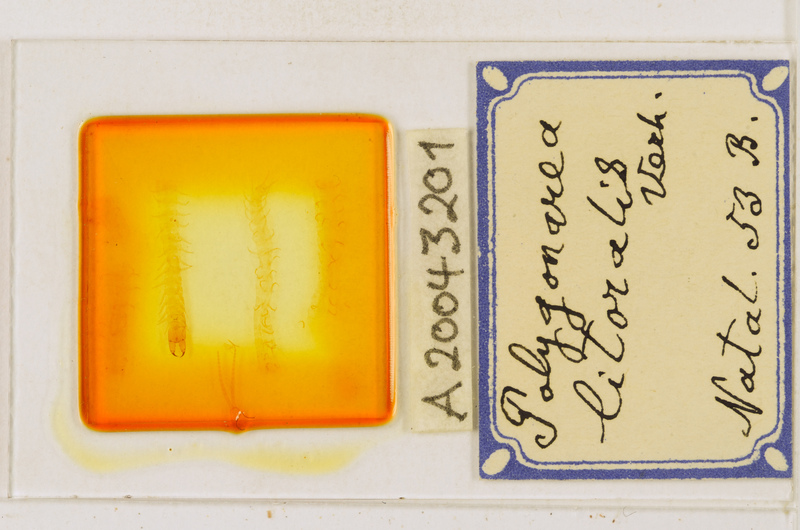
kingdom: Animalia
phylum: Arthropoda
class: Chilopoda
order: Geophilomorpha
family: Geophilidae
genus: Polygonarea
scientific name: Polygonarea litoralis
